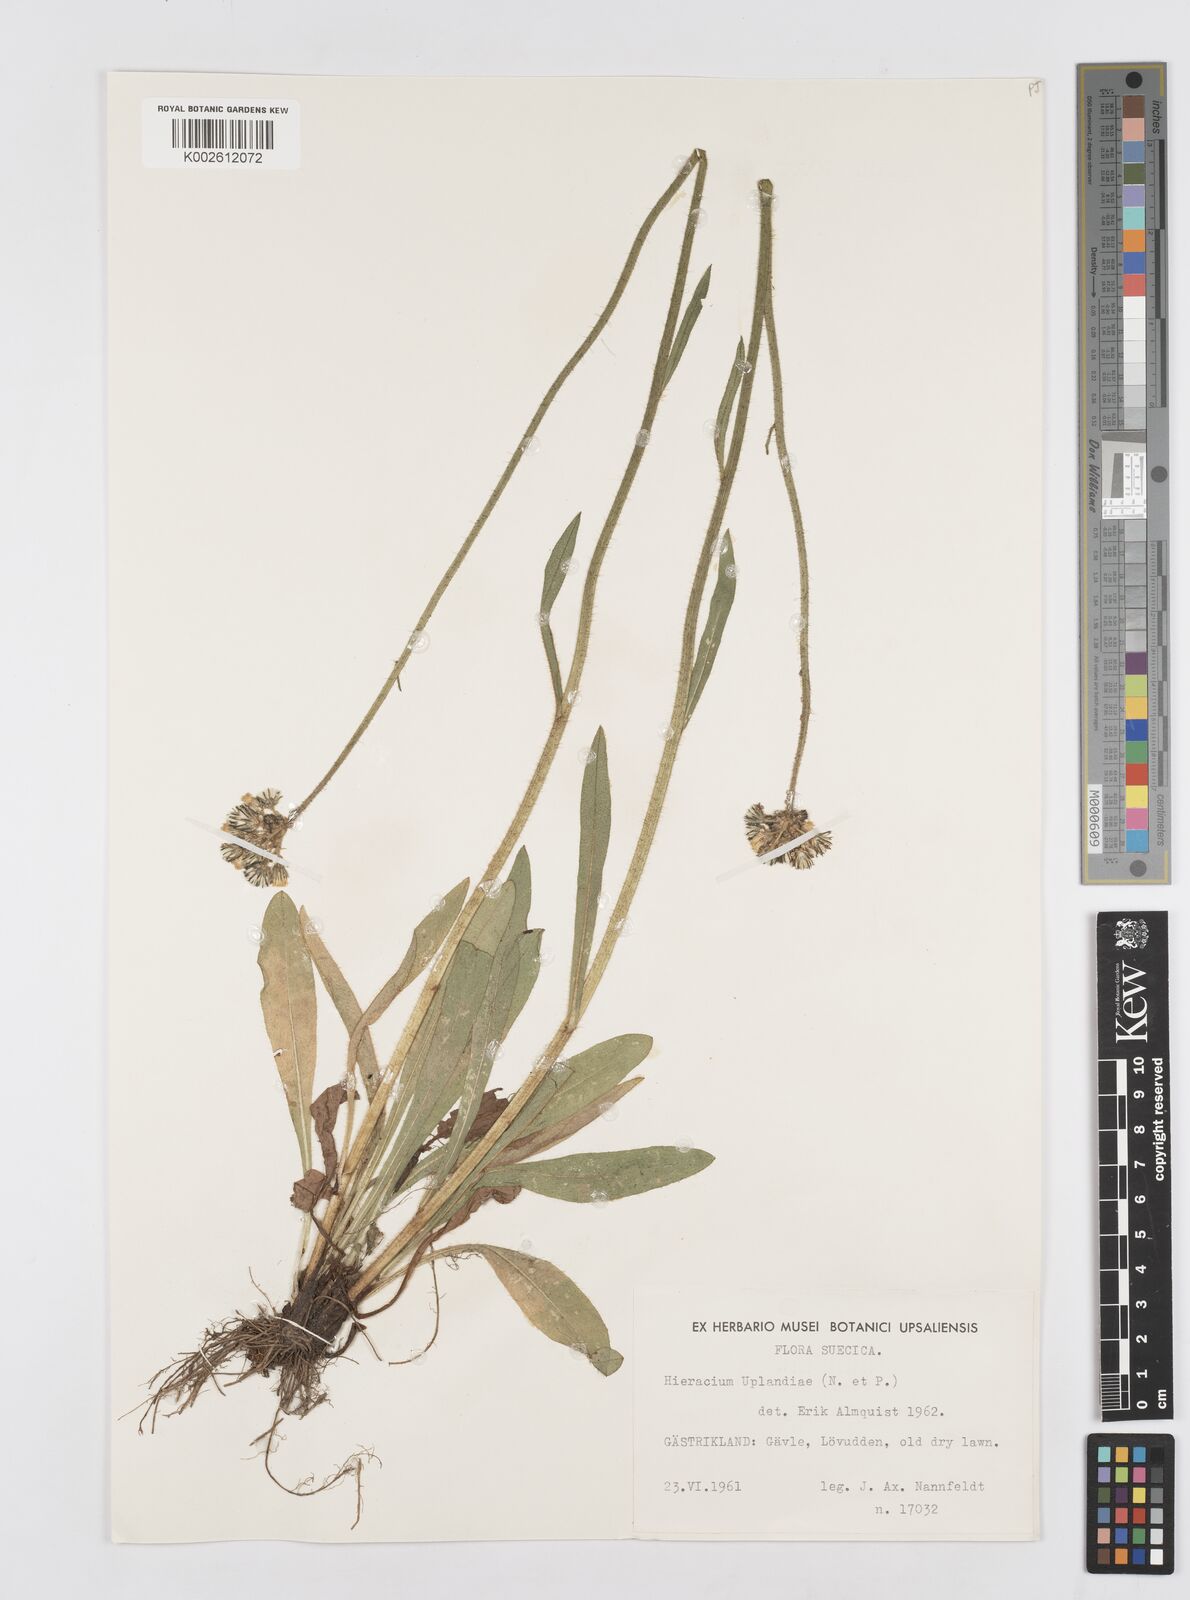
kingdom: Plantae
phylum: Tracheophyta
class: Magnoliopsida
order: Asterales
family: Asteraceae
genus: Hieracium
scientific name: Hieracium uplandiae
